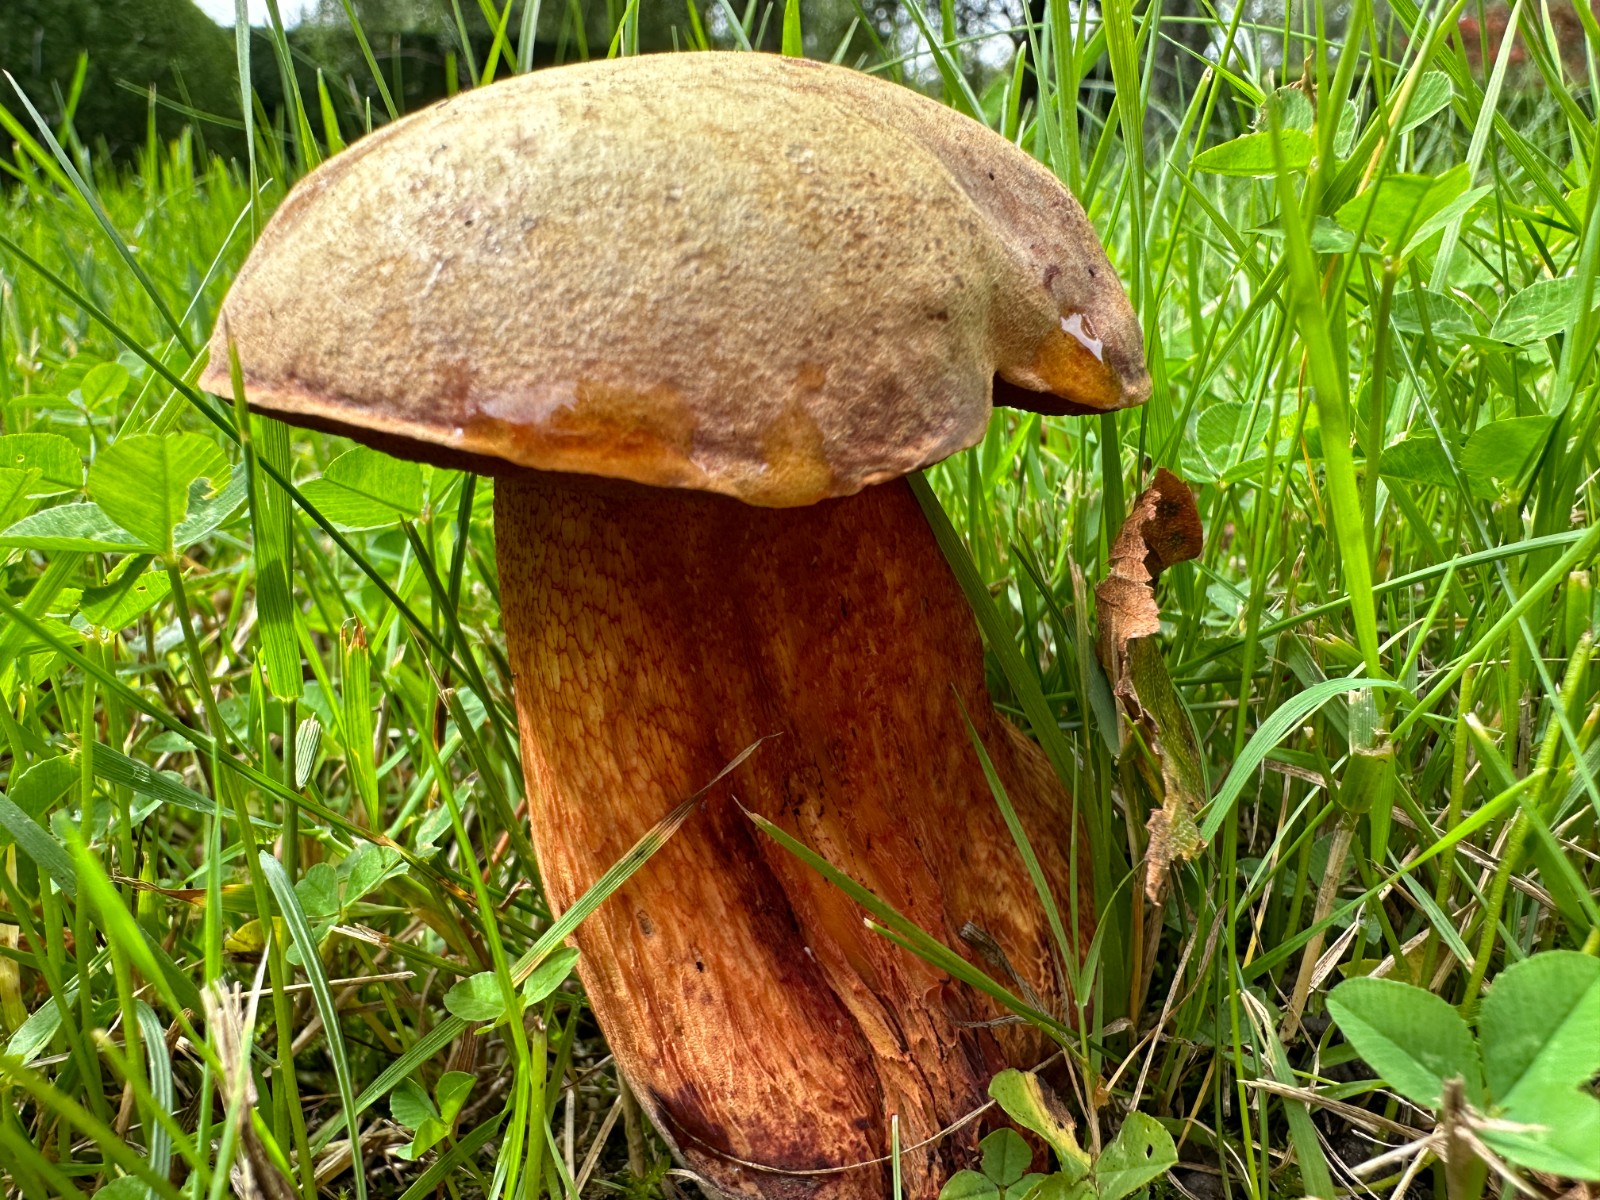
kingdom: Fungi
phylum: Basidiomycota
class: Agaricomycetes
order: Boletales
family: Boletaceae
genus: Suillellus
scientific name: Suillellus luridus
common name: netstokket indigorørhat
